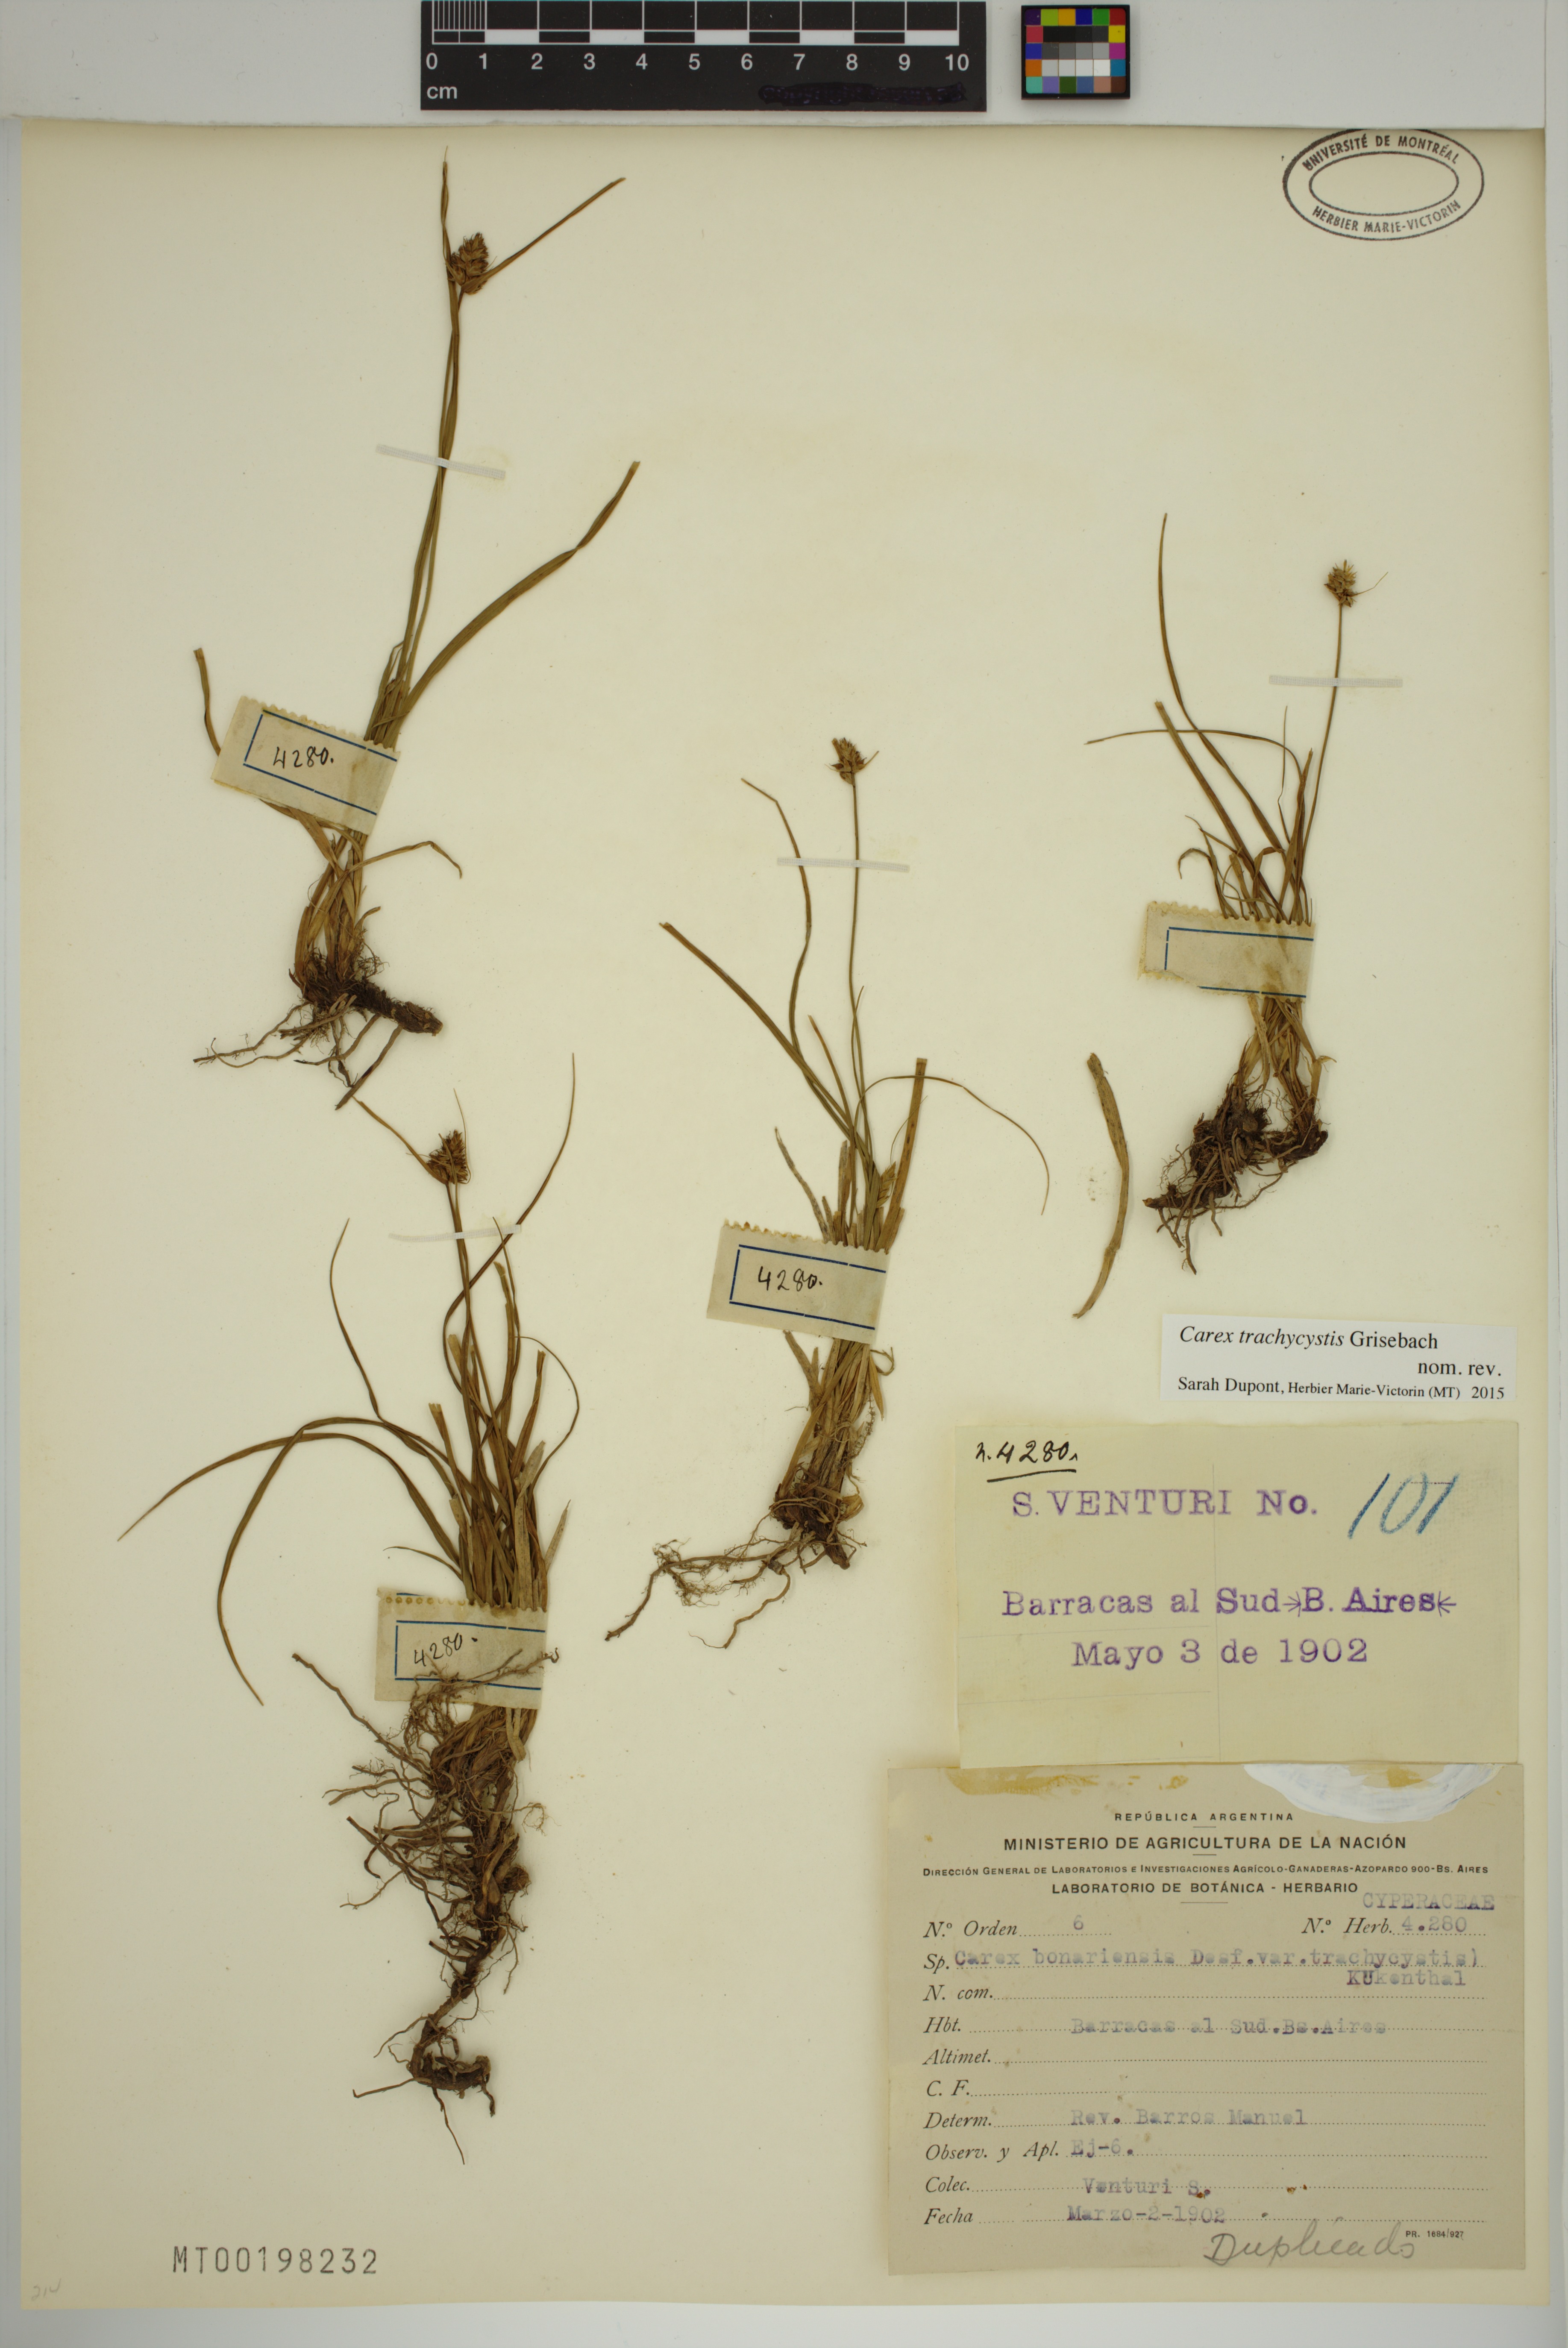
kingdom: Plantae
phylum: Tracheophyta
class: Liliopsida
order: Poales
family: Cyperaceae
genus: Carex
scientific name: Carex bonariensis
